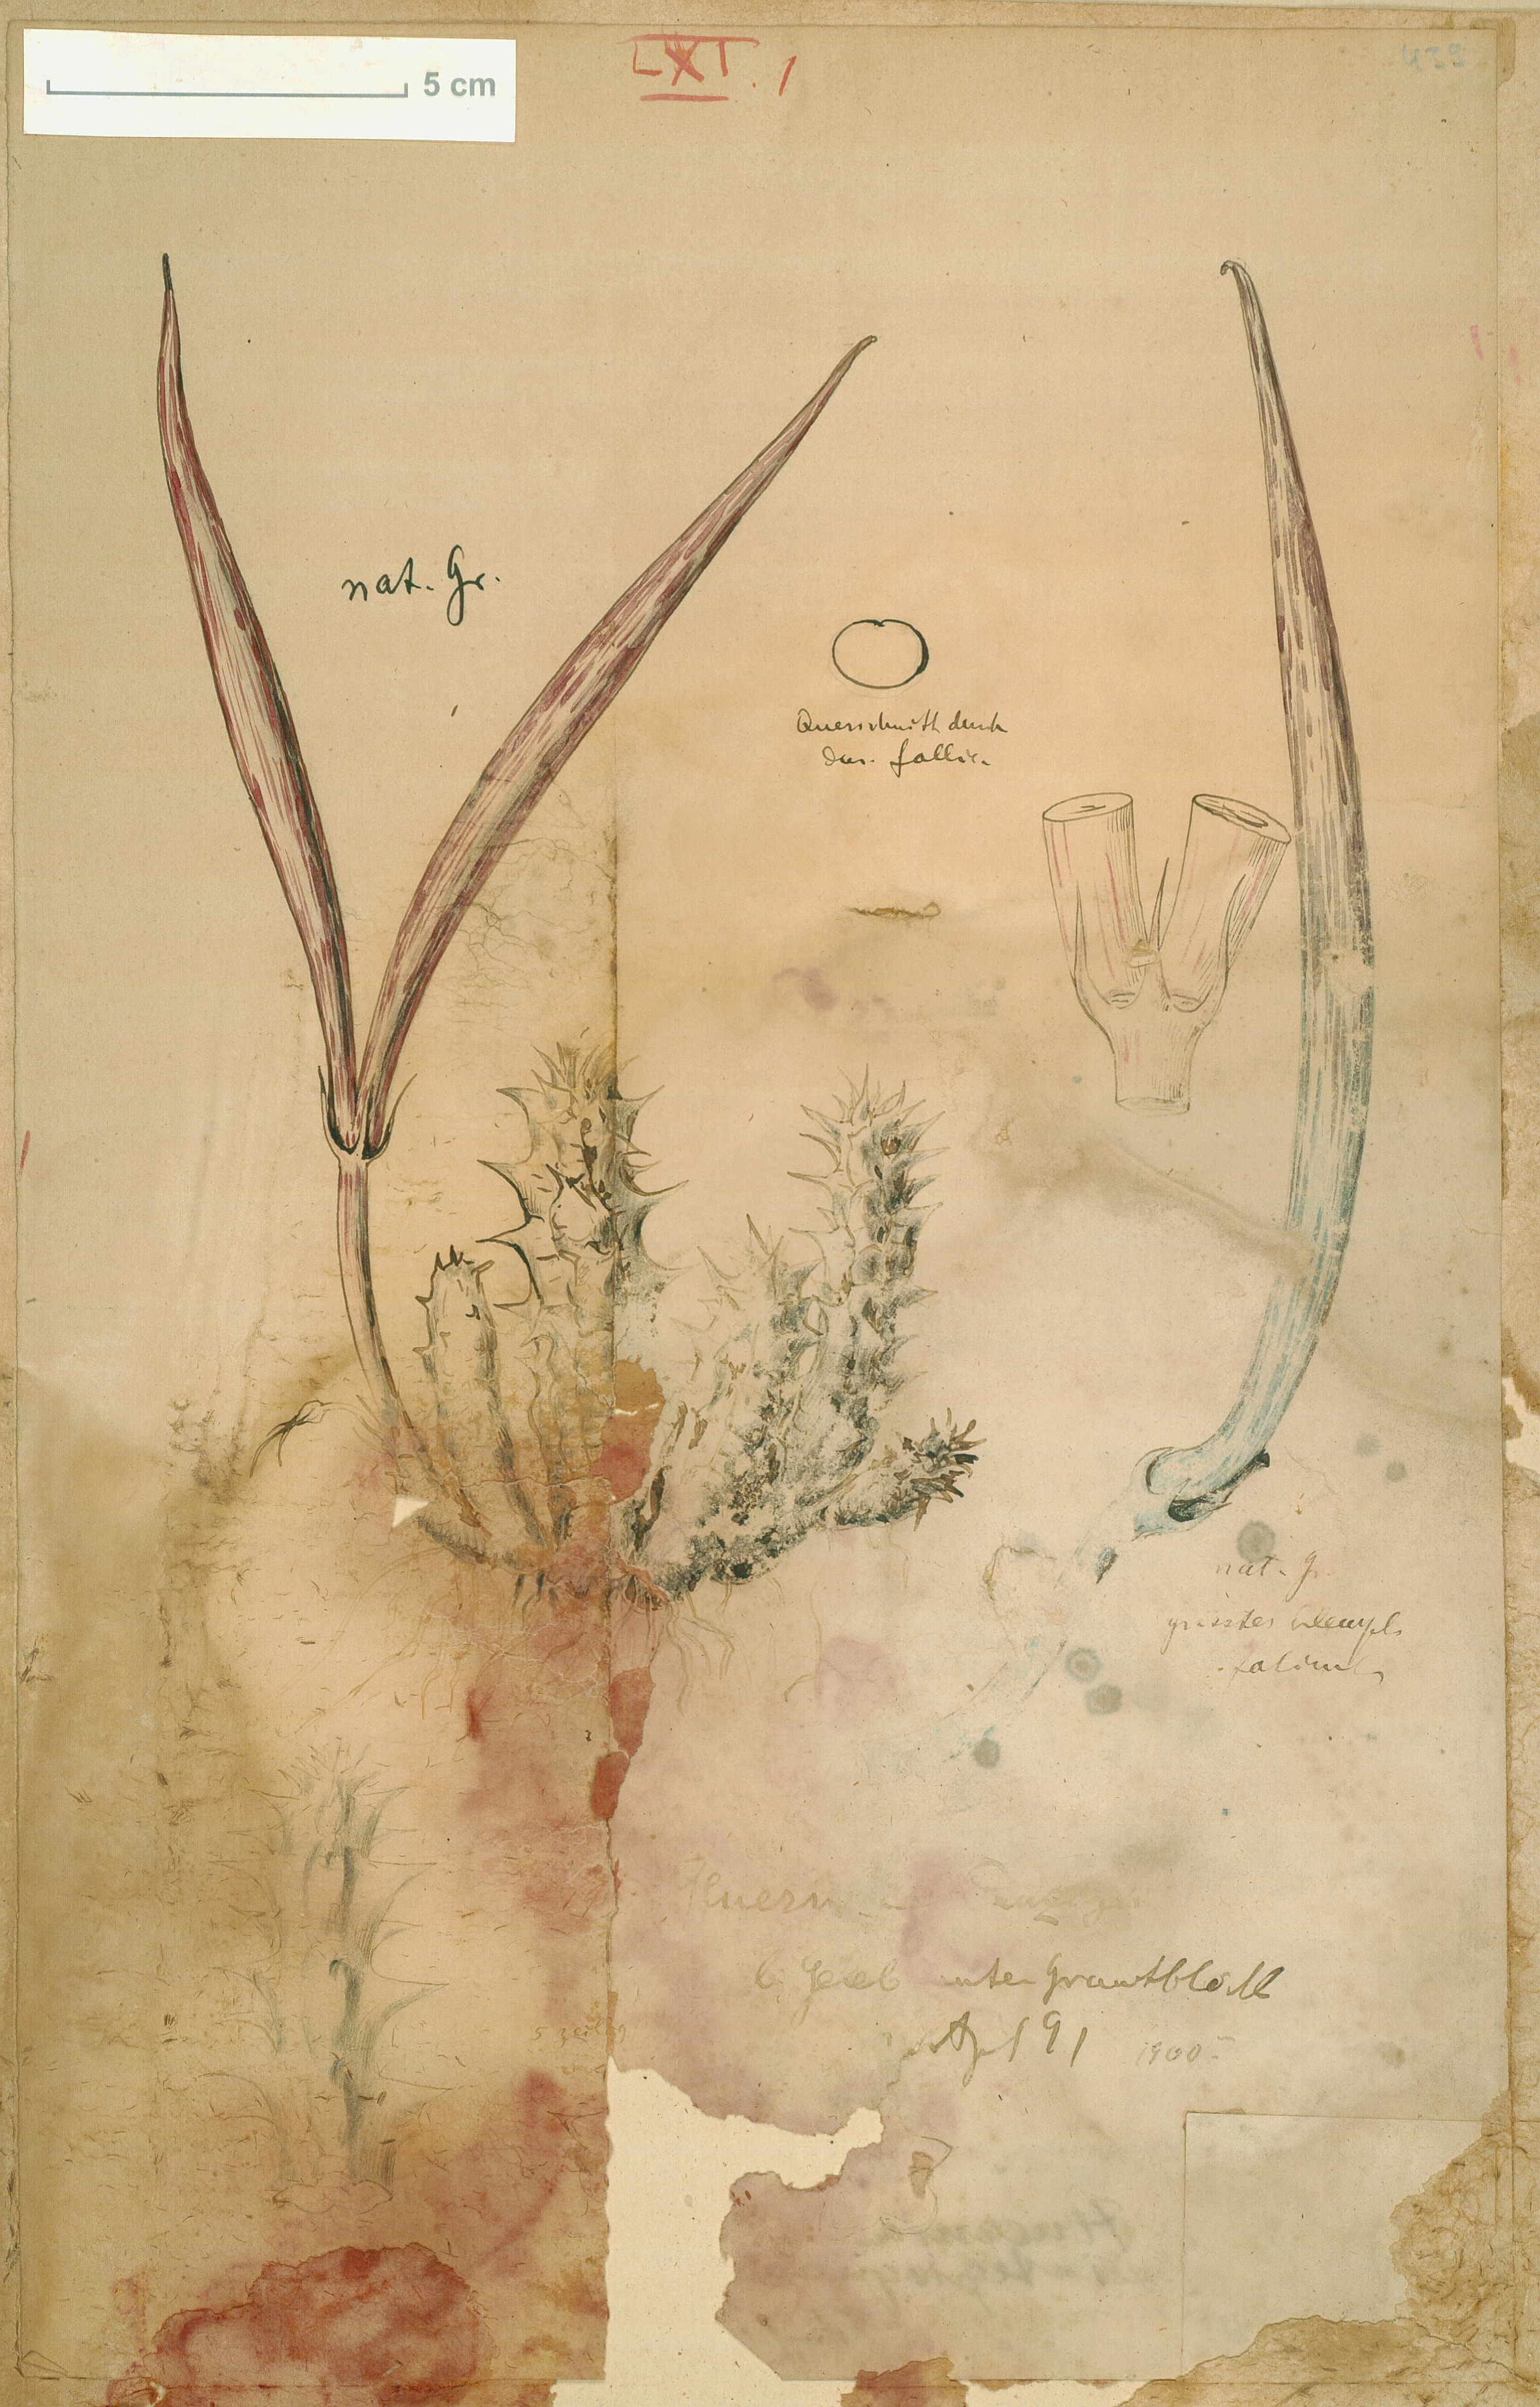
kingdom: Plantae
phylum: Tracheophyta
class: Magnoliopsida
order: Gentianales
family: Apocynaceae
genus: Ceropegia
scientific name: Ceropegia macrocarpa
